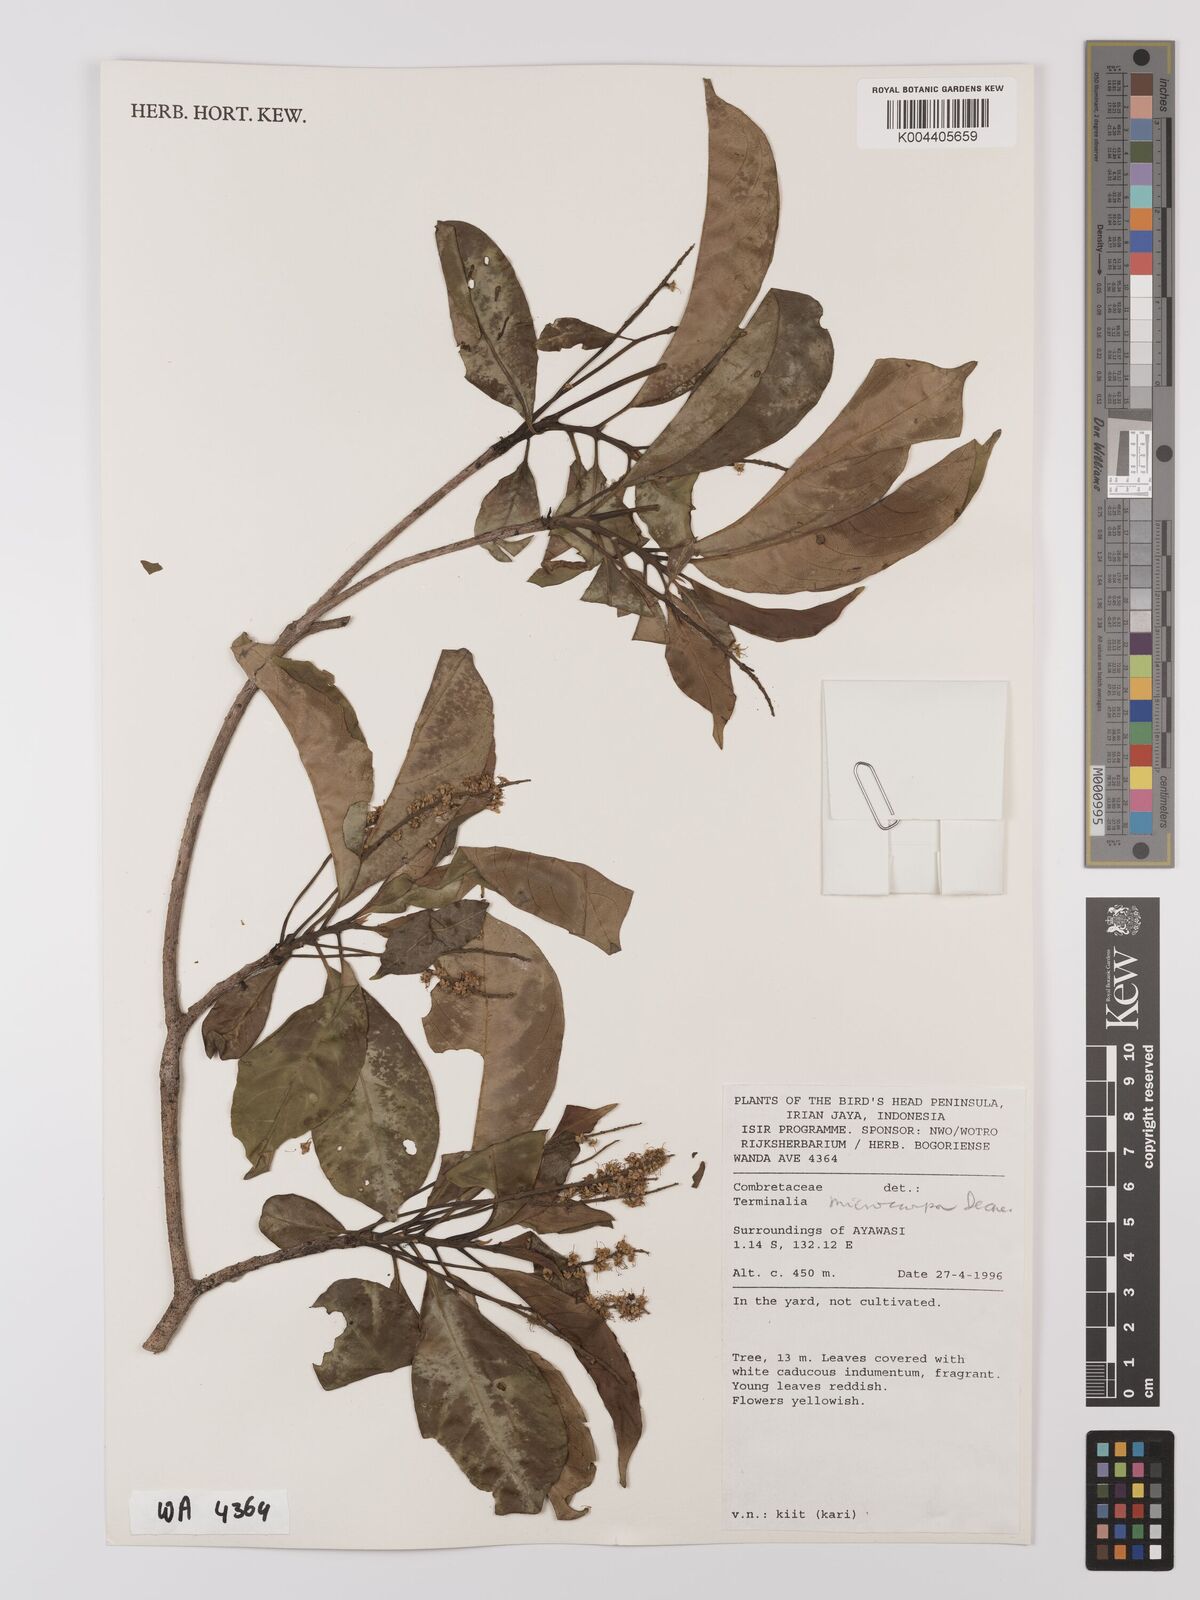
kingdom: Plantae
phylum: Tracheophyta
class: Magnoliopsida
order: Myrtales
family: Combretaceae
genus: Terminalia
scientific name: Terminalia
